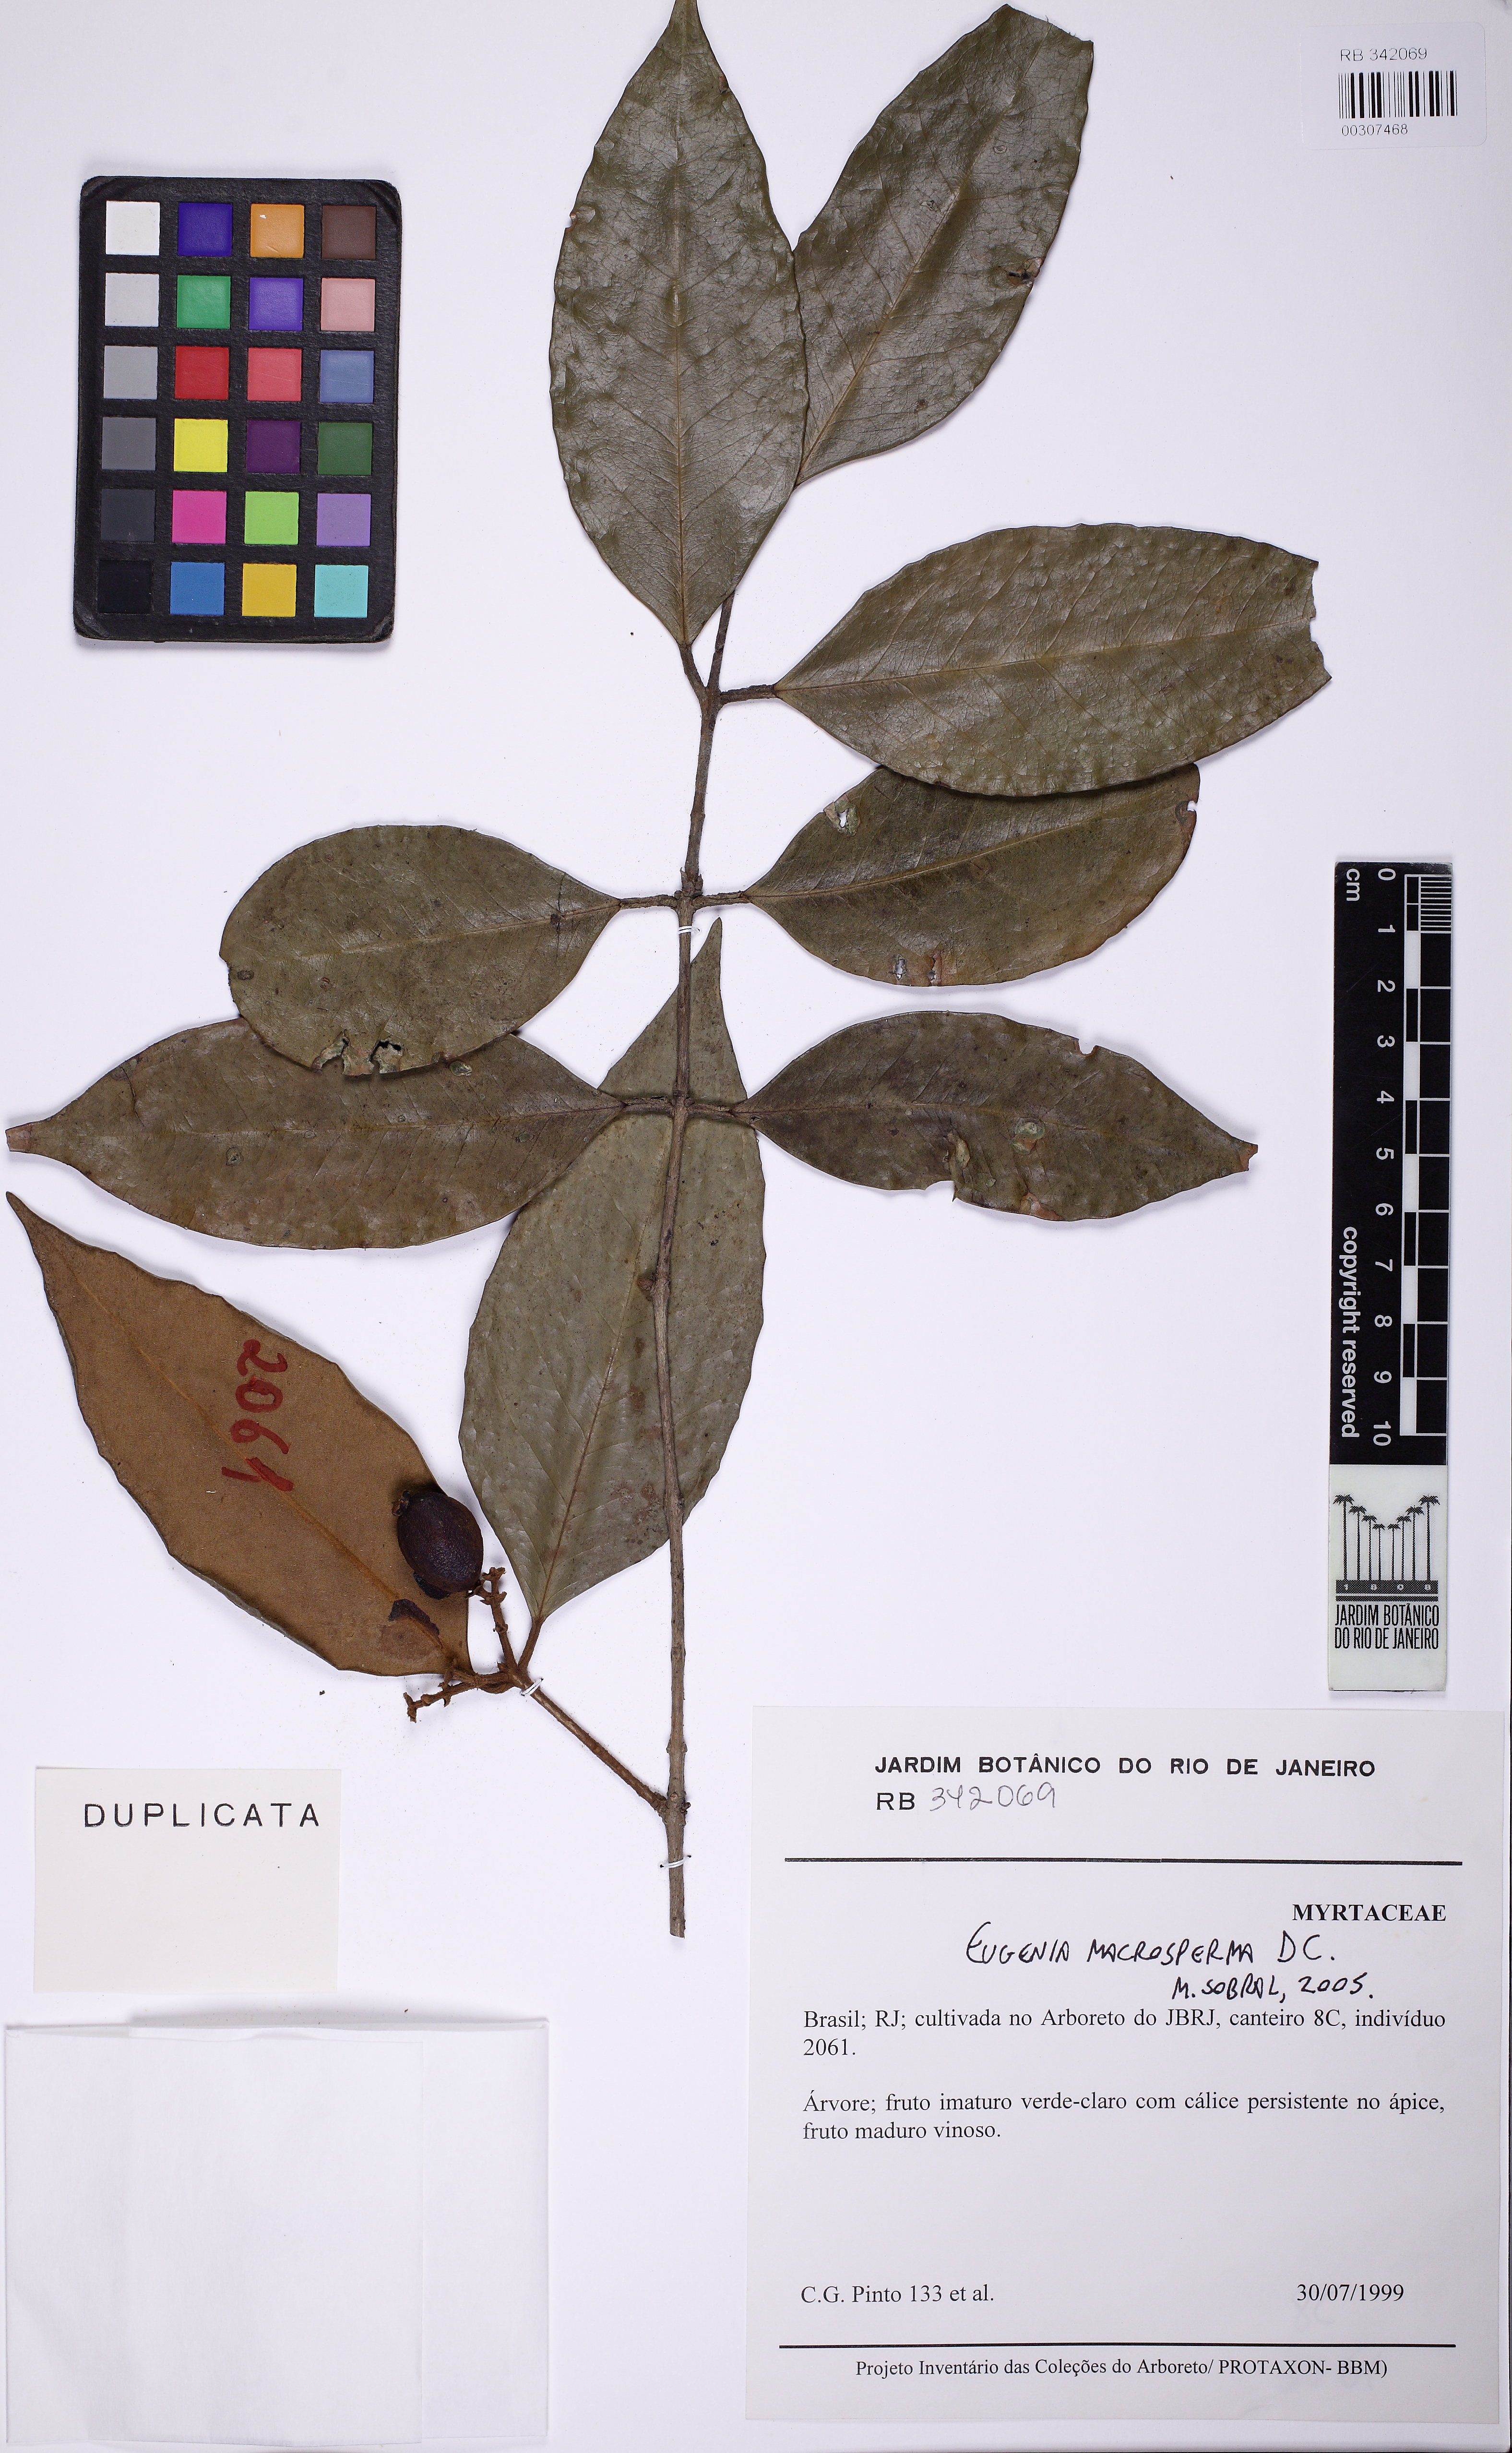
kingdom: Plantae
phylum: Tracheophyta
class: Magnoliopsida
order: Myrtales
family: Myrtaceae
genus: Eugenia
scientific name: Eugenia macrosperma
